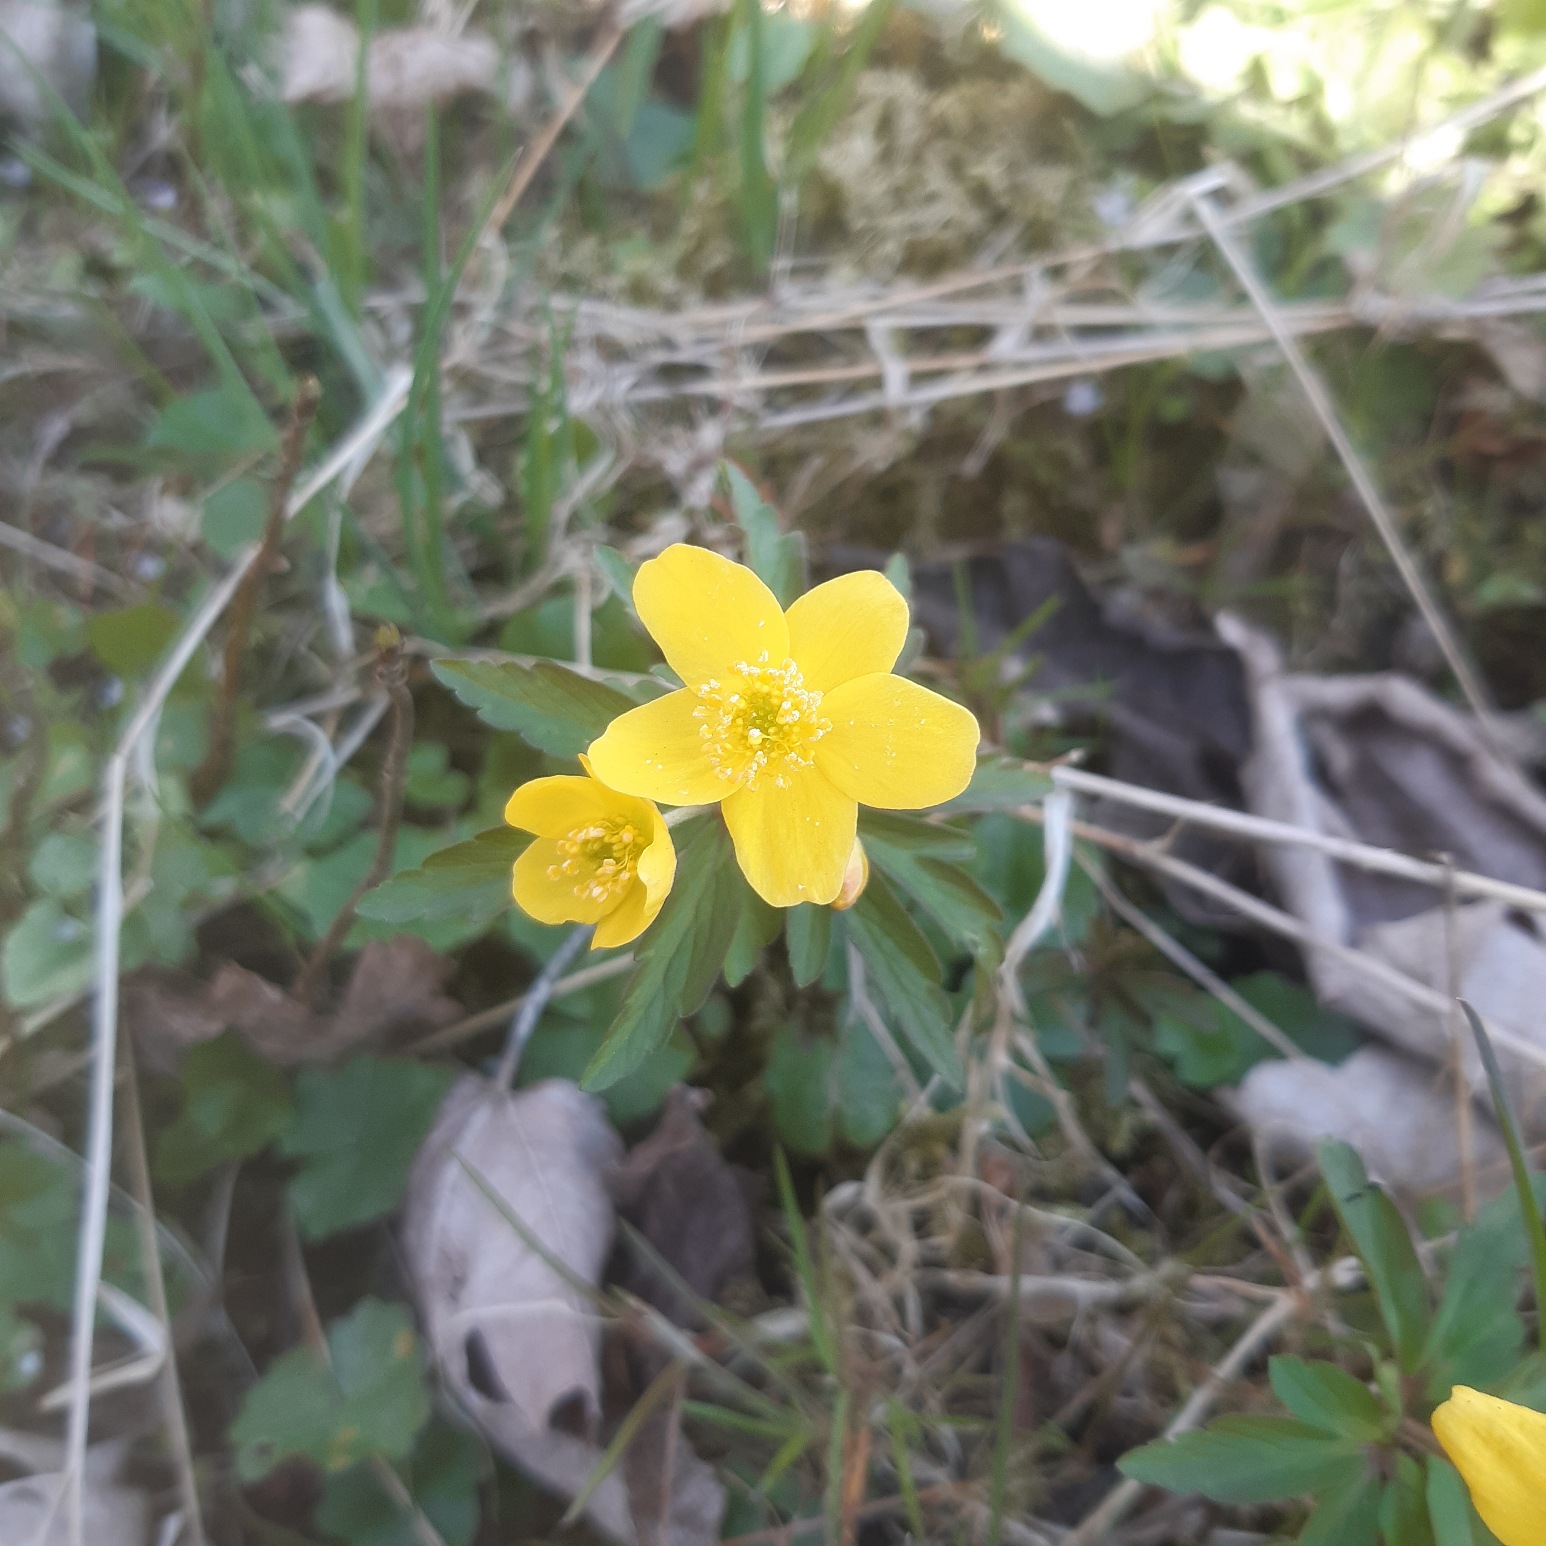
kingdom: Plantae
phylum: Tracheophyta
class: Magnoliopsida
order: Ranunculales
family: Ranunculaceae
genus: Anemone
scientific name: Anemone ranunculoides
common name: Gul anemone
